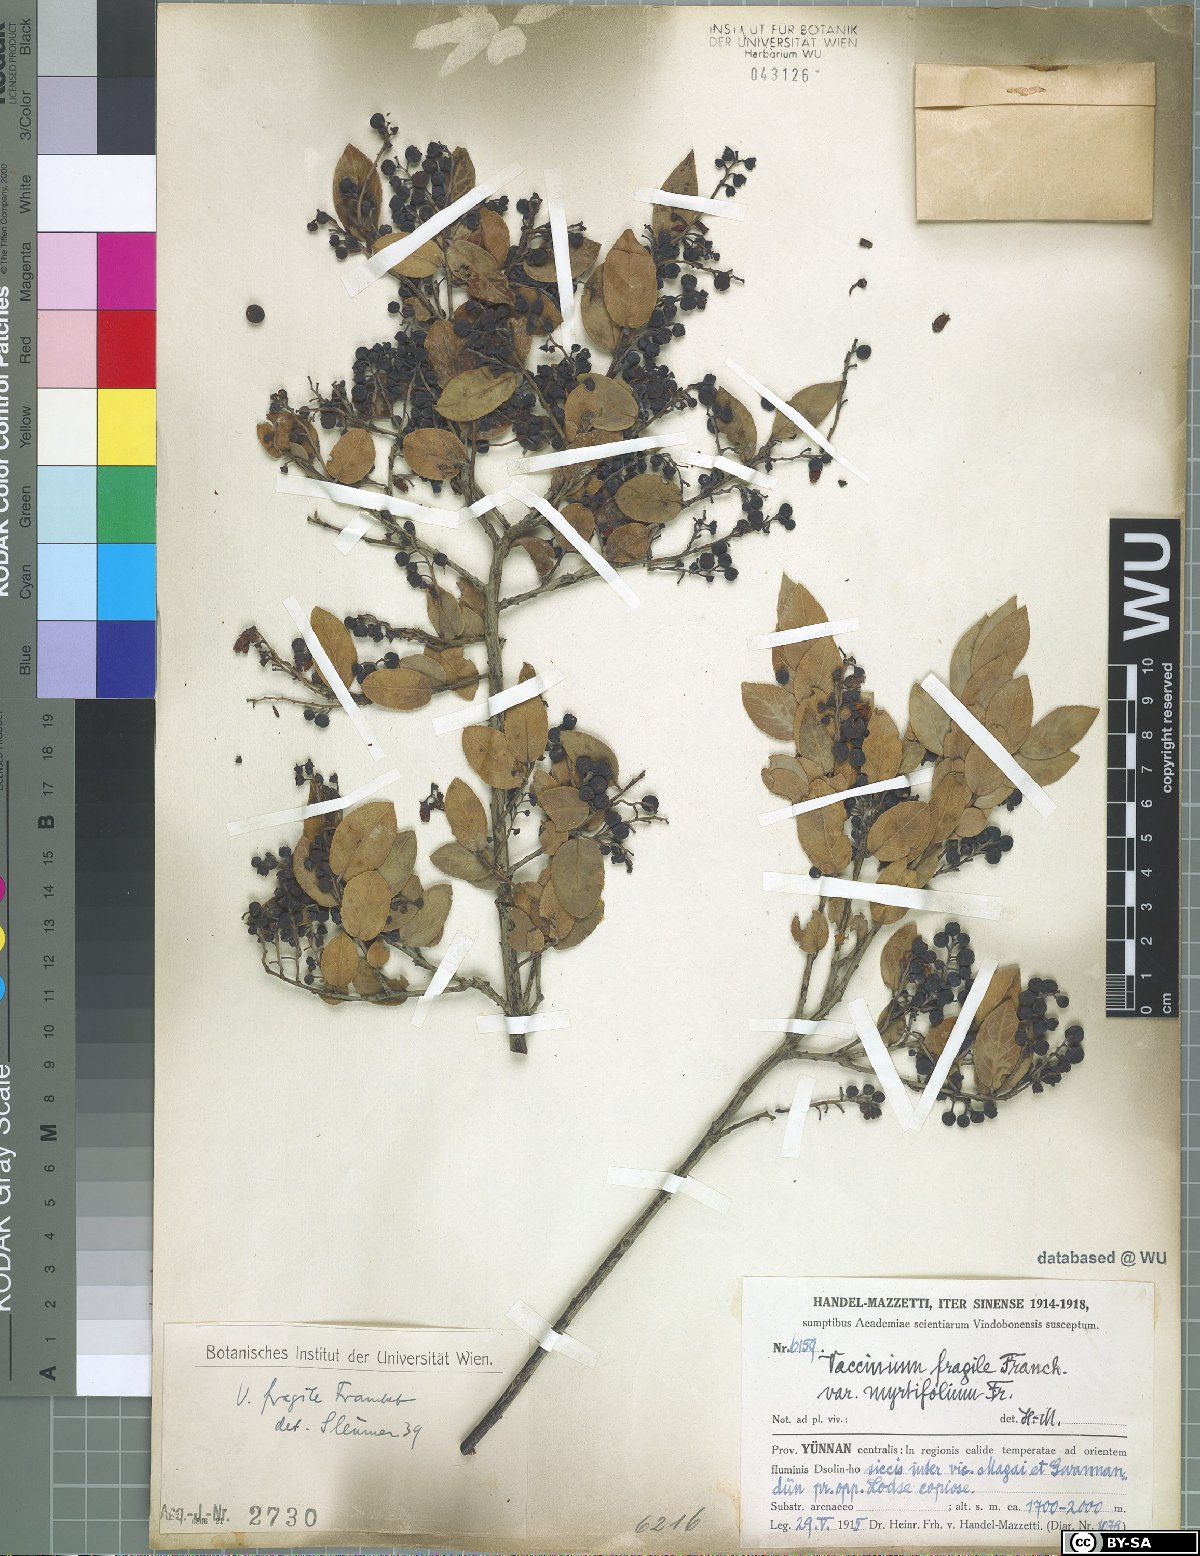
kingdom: Plantae
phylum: Tracheophyta
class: Magnoliopsida
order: Ericales
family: Ericaceae
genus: Vaccinium
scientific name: Vaccinium fragile
